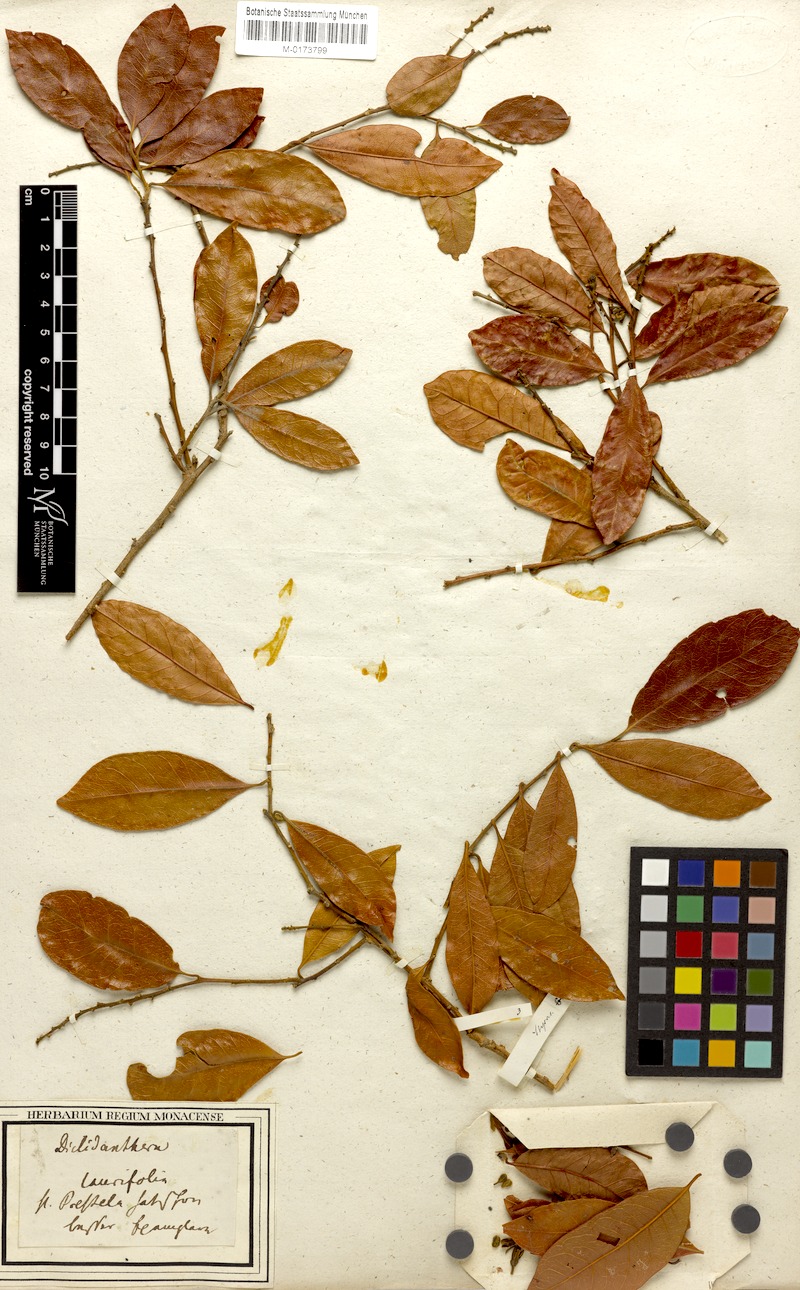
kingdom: Plantae
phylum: Tracheophyta
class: Magnoliopsida
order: Fabales
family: Polygalaceae
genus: Diclidanthera
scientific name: Diclidanthera laurifolia
